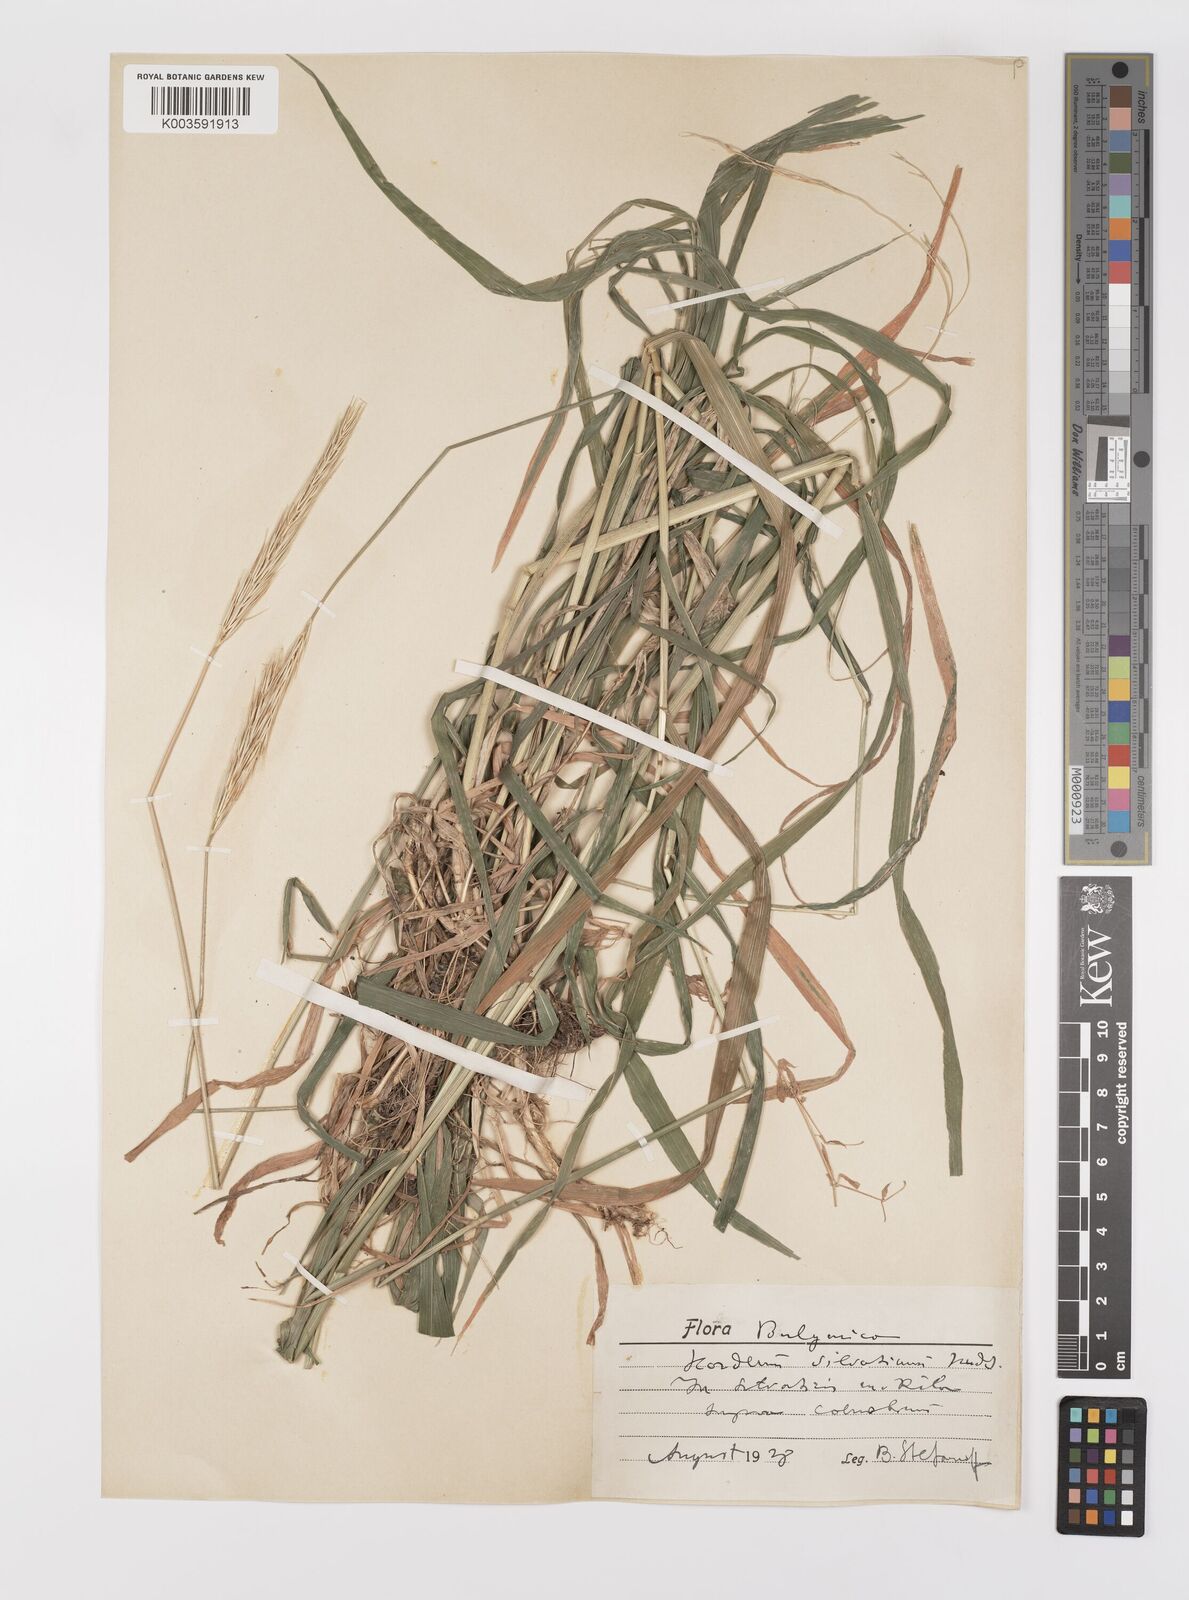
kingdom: Plantae
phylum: Tracheophyta
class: Liliopsida
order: Poales
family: Poaceae
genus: Hordelymus
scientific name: Hordelymus europaeus
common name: Wood-barley
